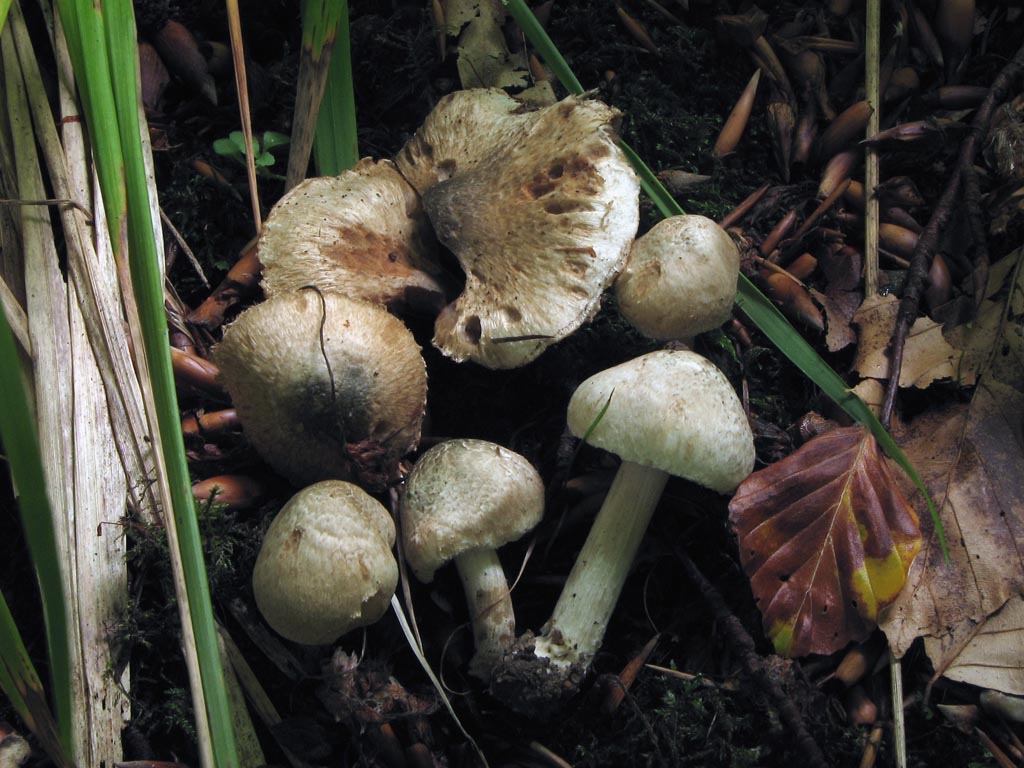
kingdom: Fungi
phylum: Basidiomycota
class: Agaricomycetes
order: Agaricales
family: Inocybaceae
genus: Inocybe
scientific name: Inocybe corydalina
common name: grønpuklet trævlhat
